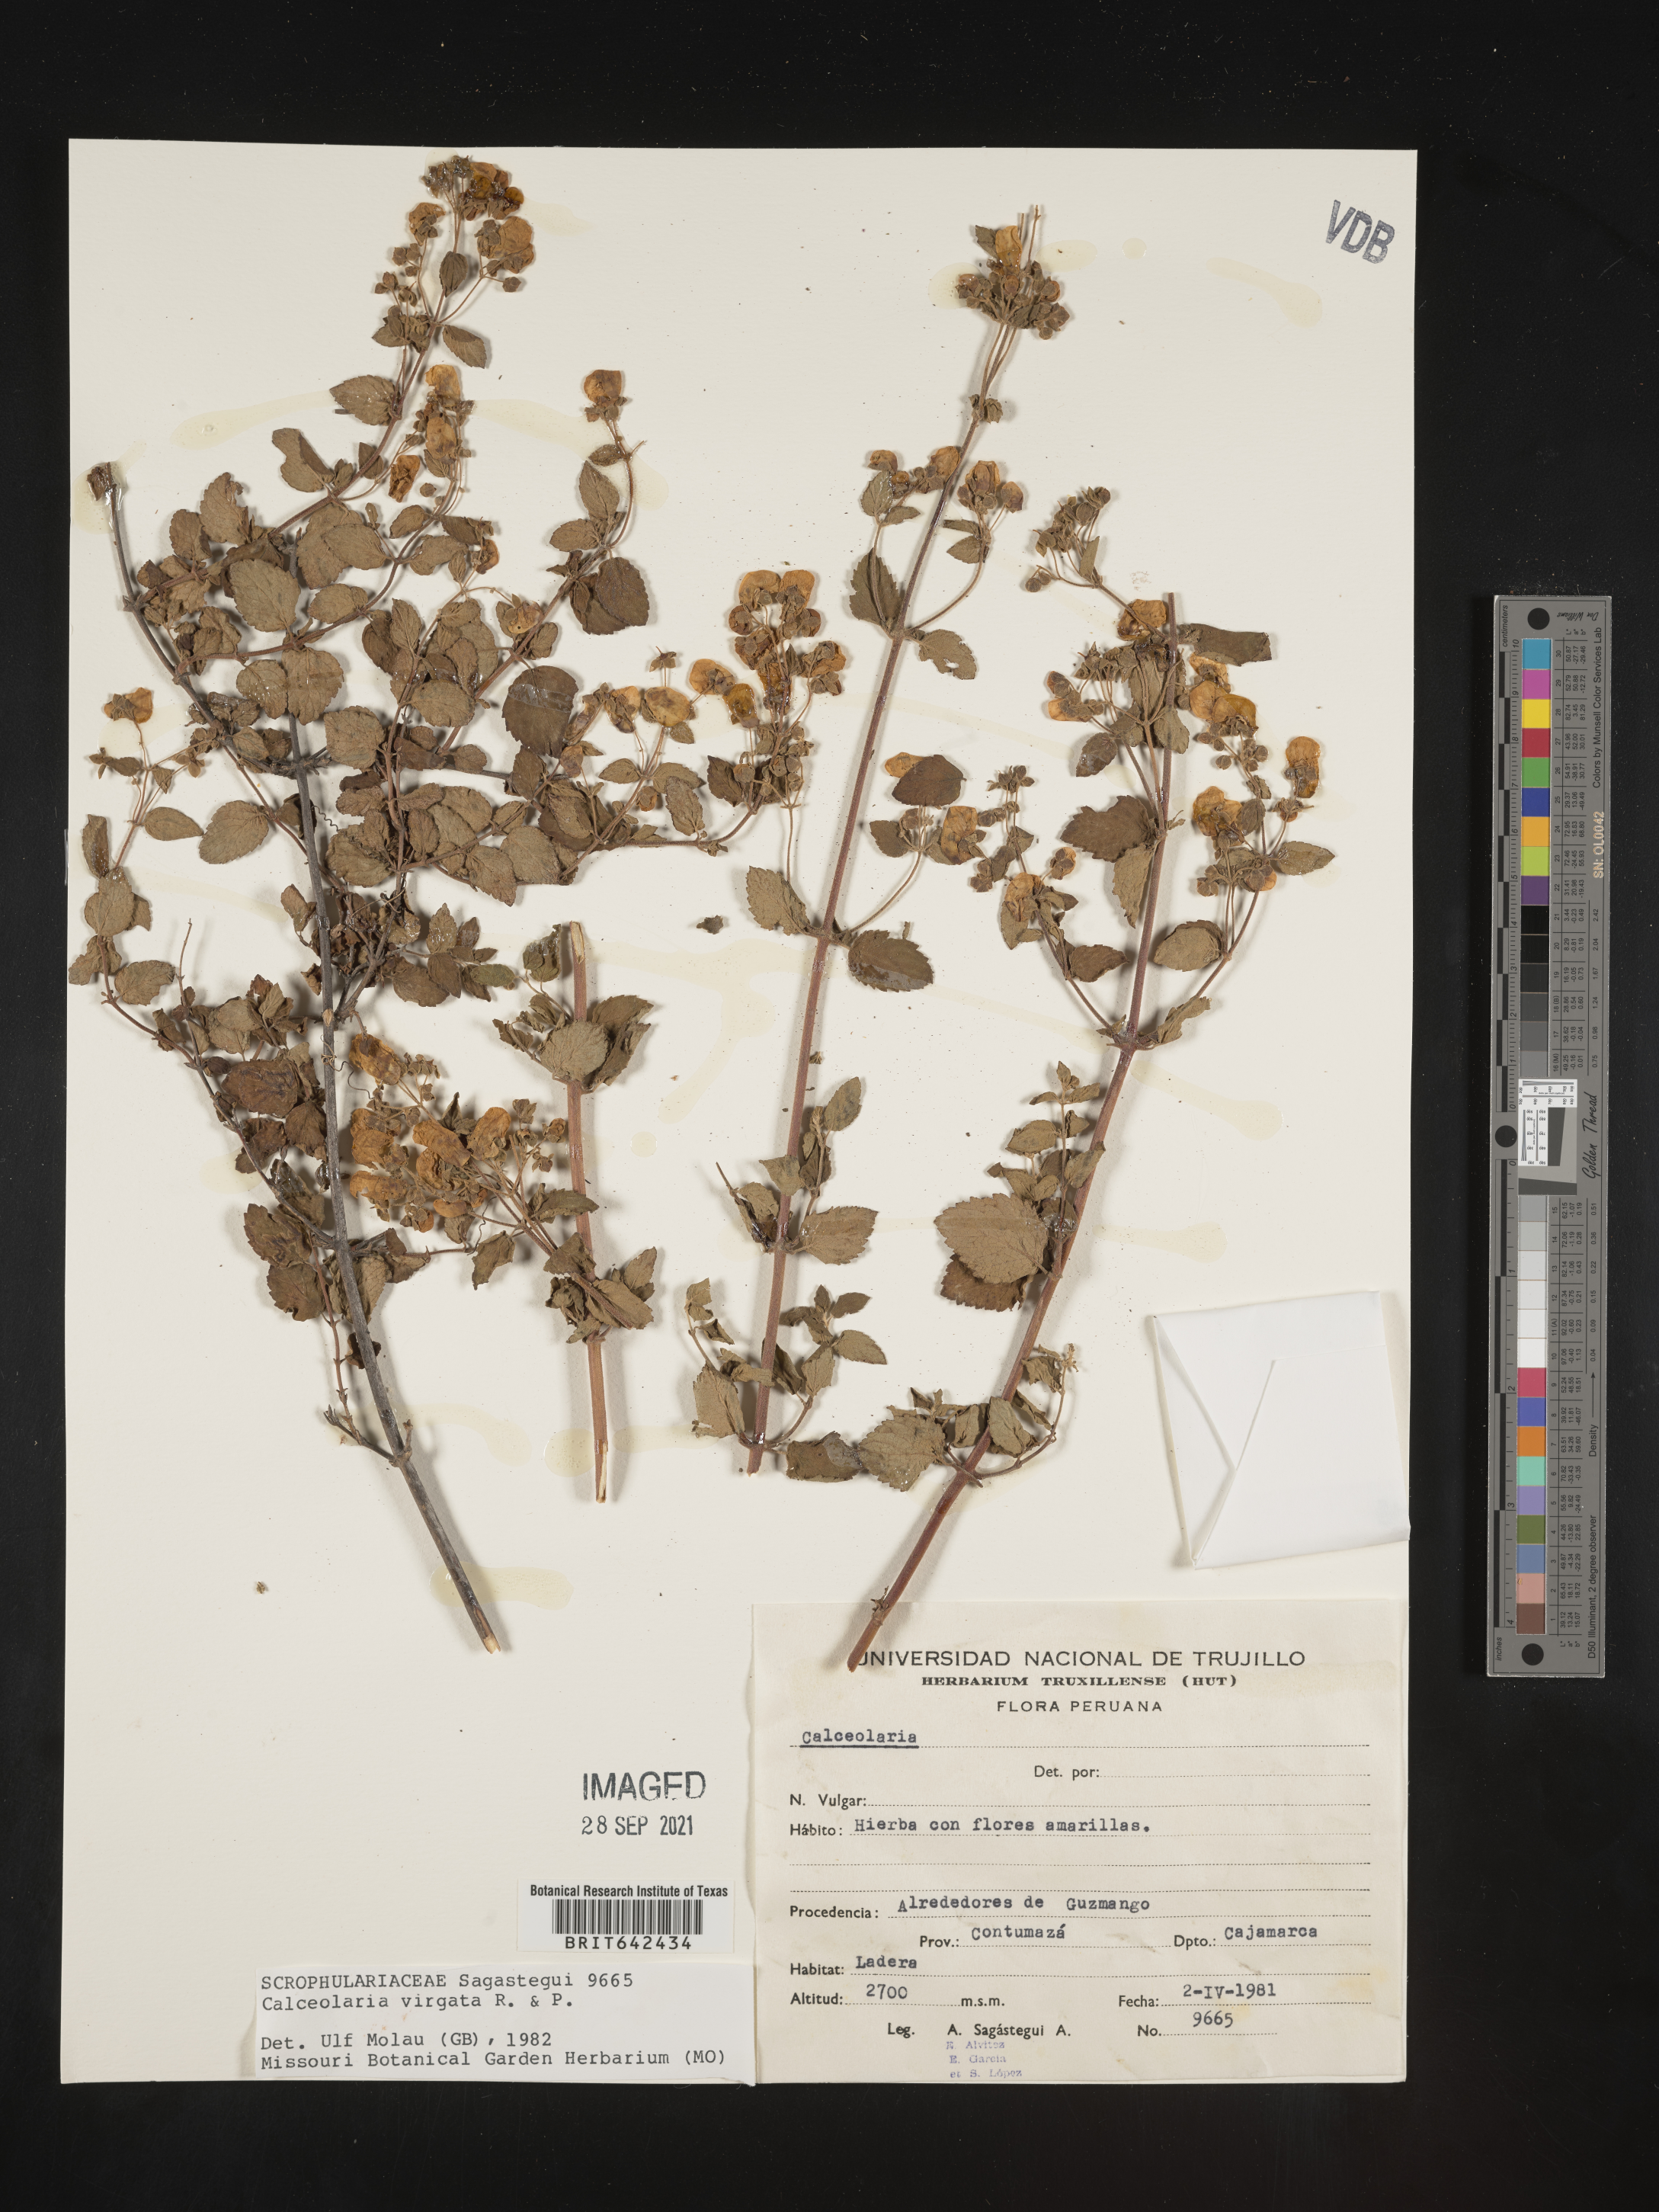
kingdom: Plantae
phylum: Tracheophyta
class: Magnoliopsida
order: Lamiales
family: Calceolariaceae
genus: Calceolaria
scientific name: Calceolaria virgata
